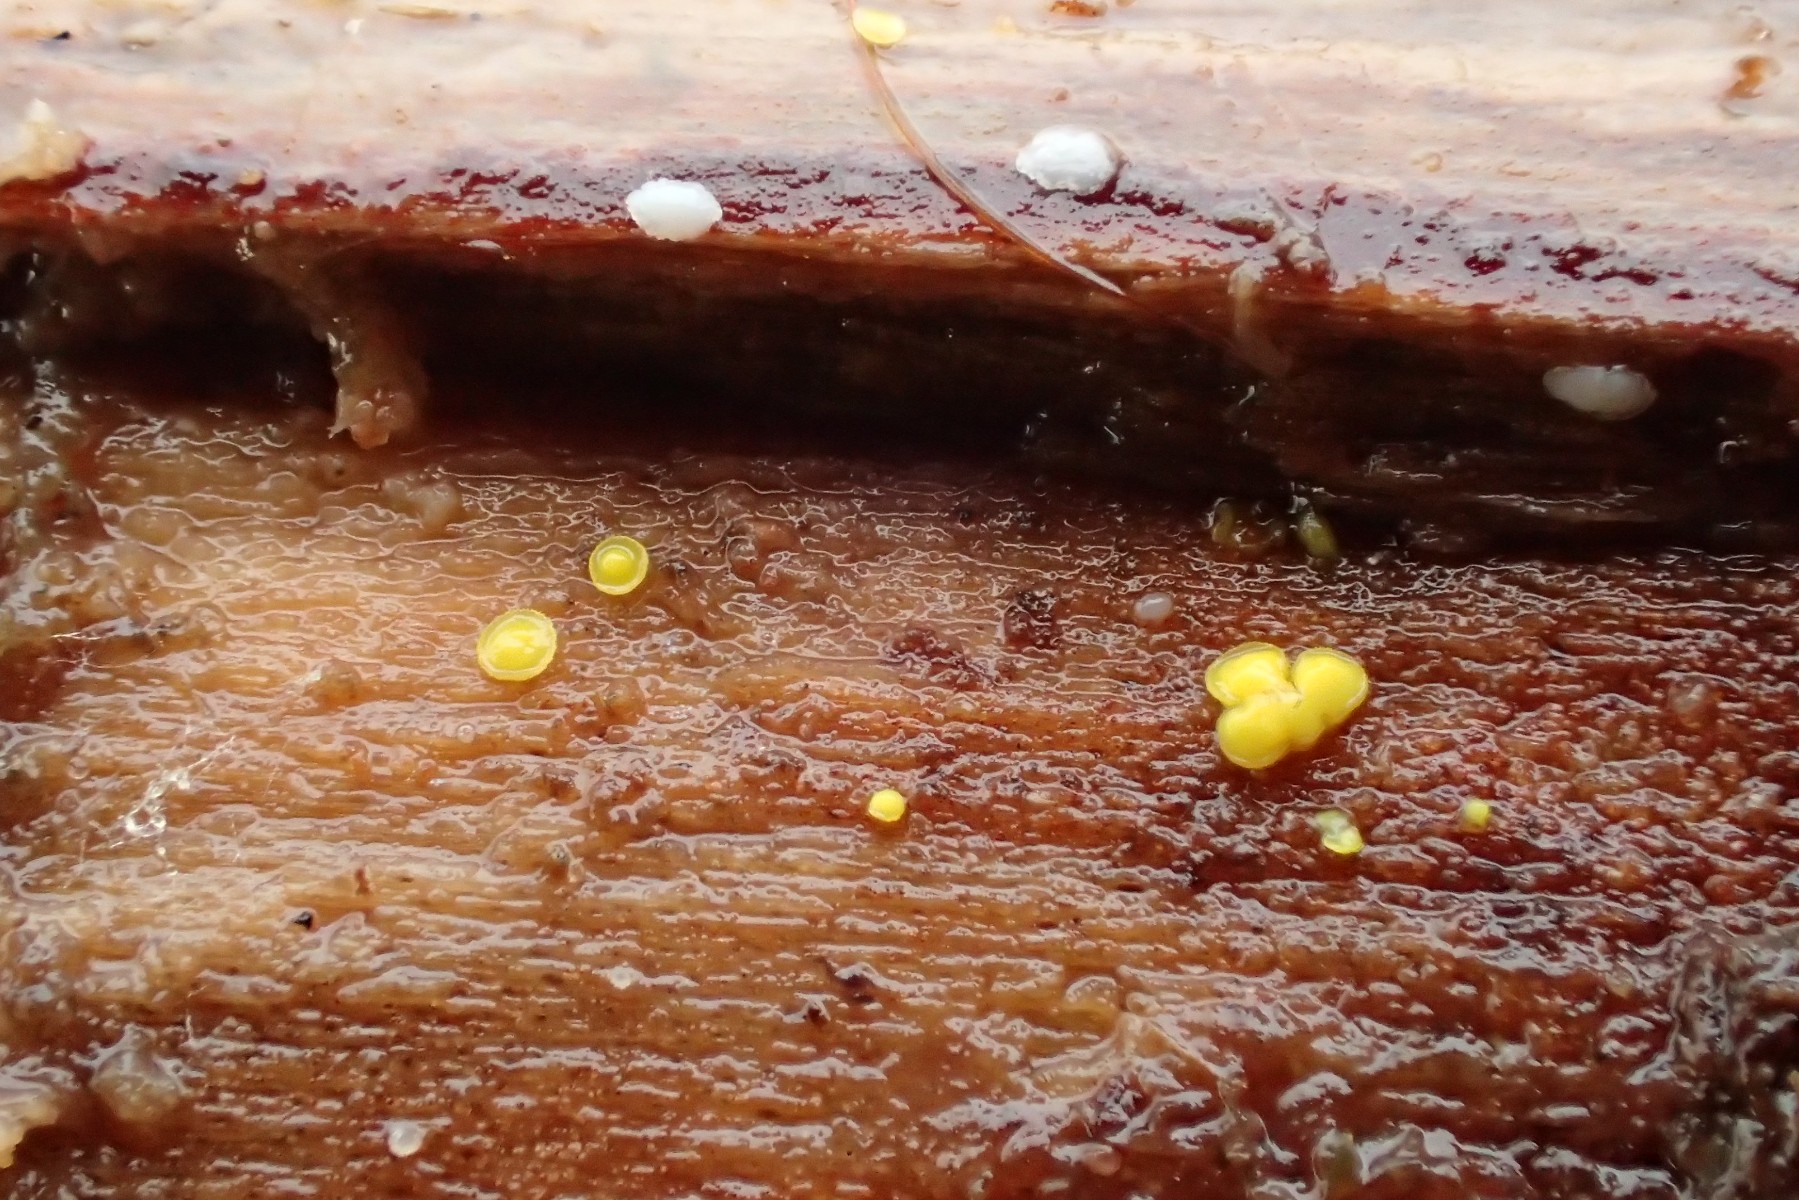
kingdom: Fungi
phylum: Ascomycota
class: Leotiomycetes
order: Helotiales
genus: Lemalis
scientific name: Lemalis aurea
